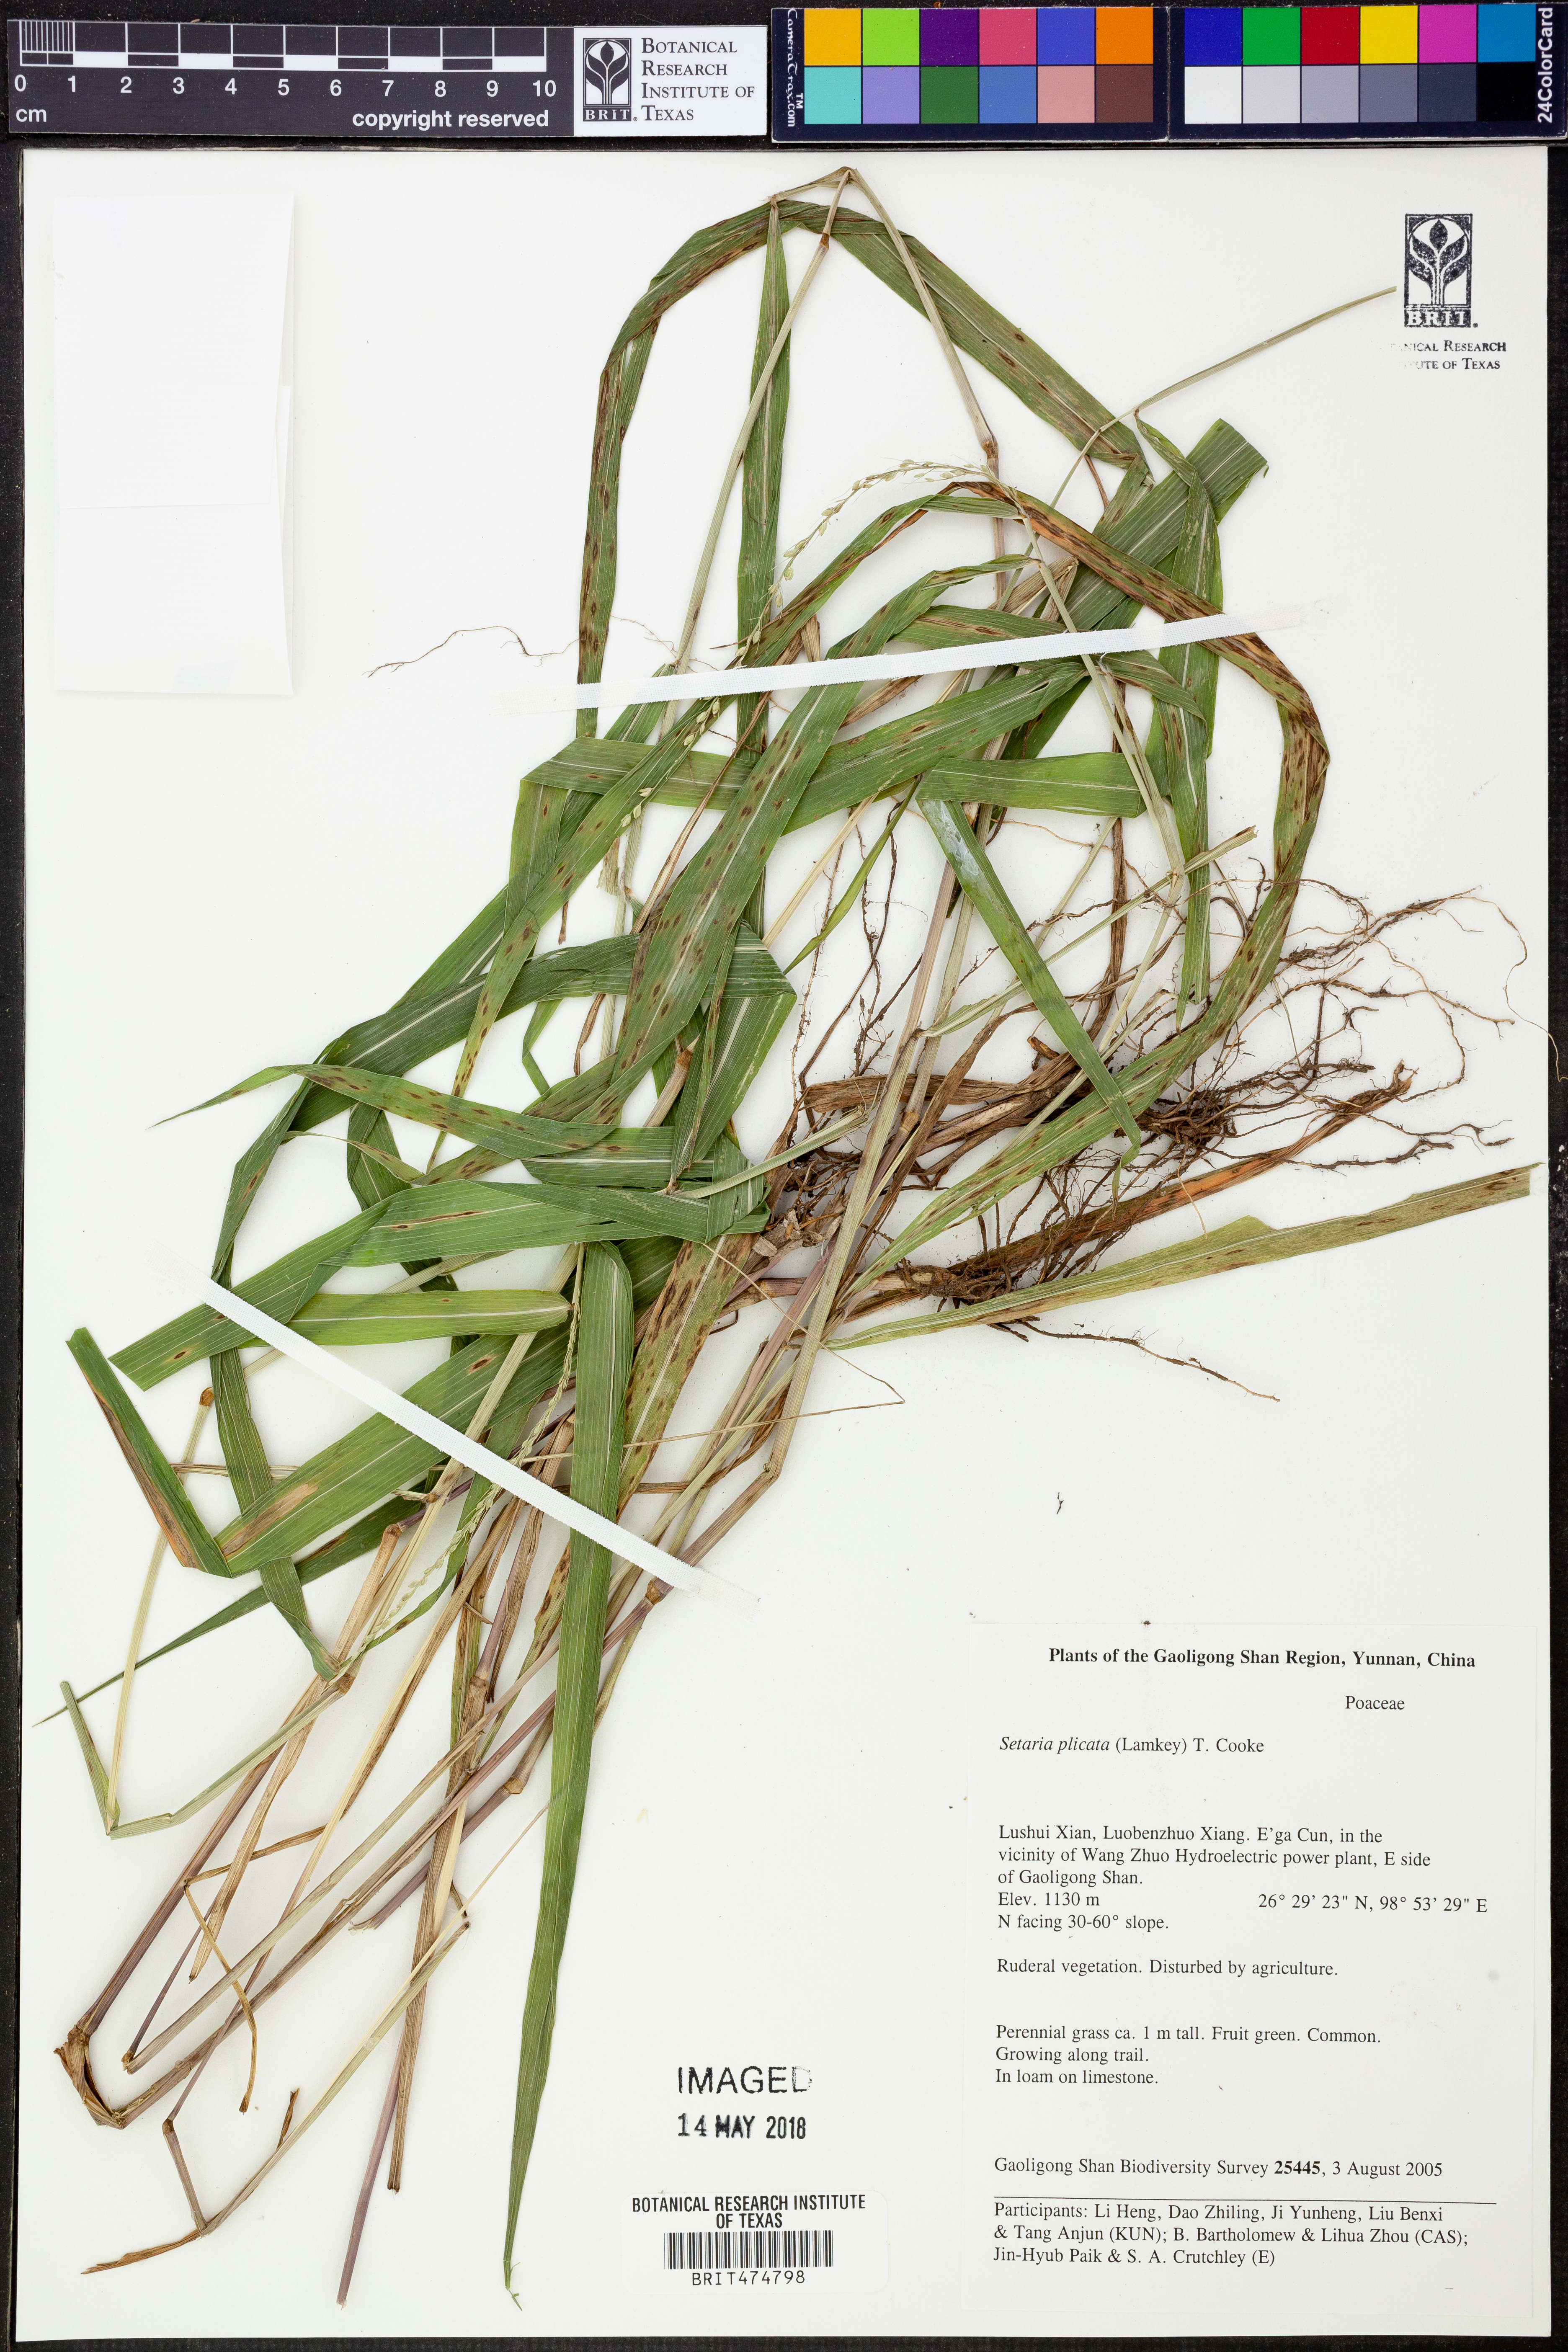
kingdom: Plantae
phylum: Tracheophyta
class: Liliopsida
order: Poales
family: Poaceae
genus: Setaria
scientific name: Setaria plicata
